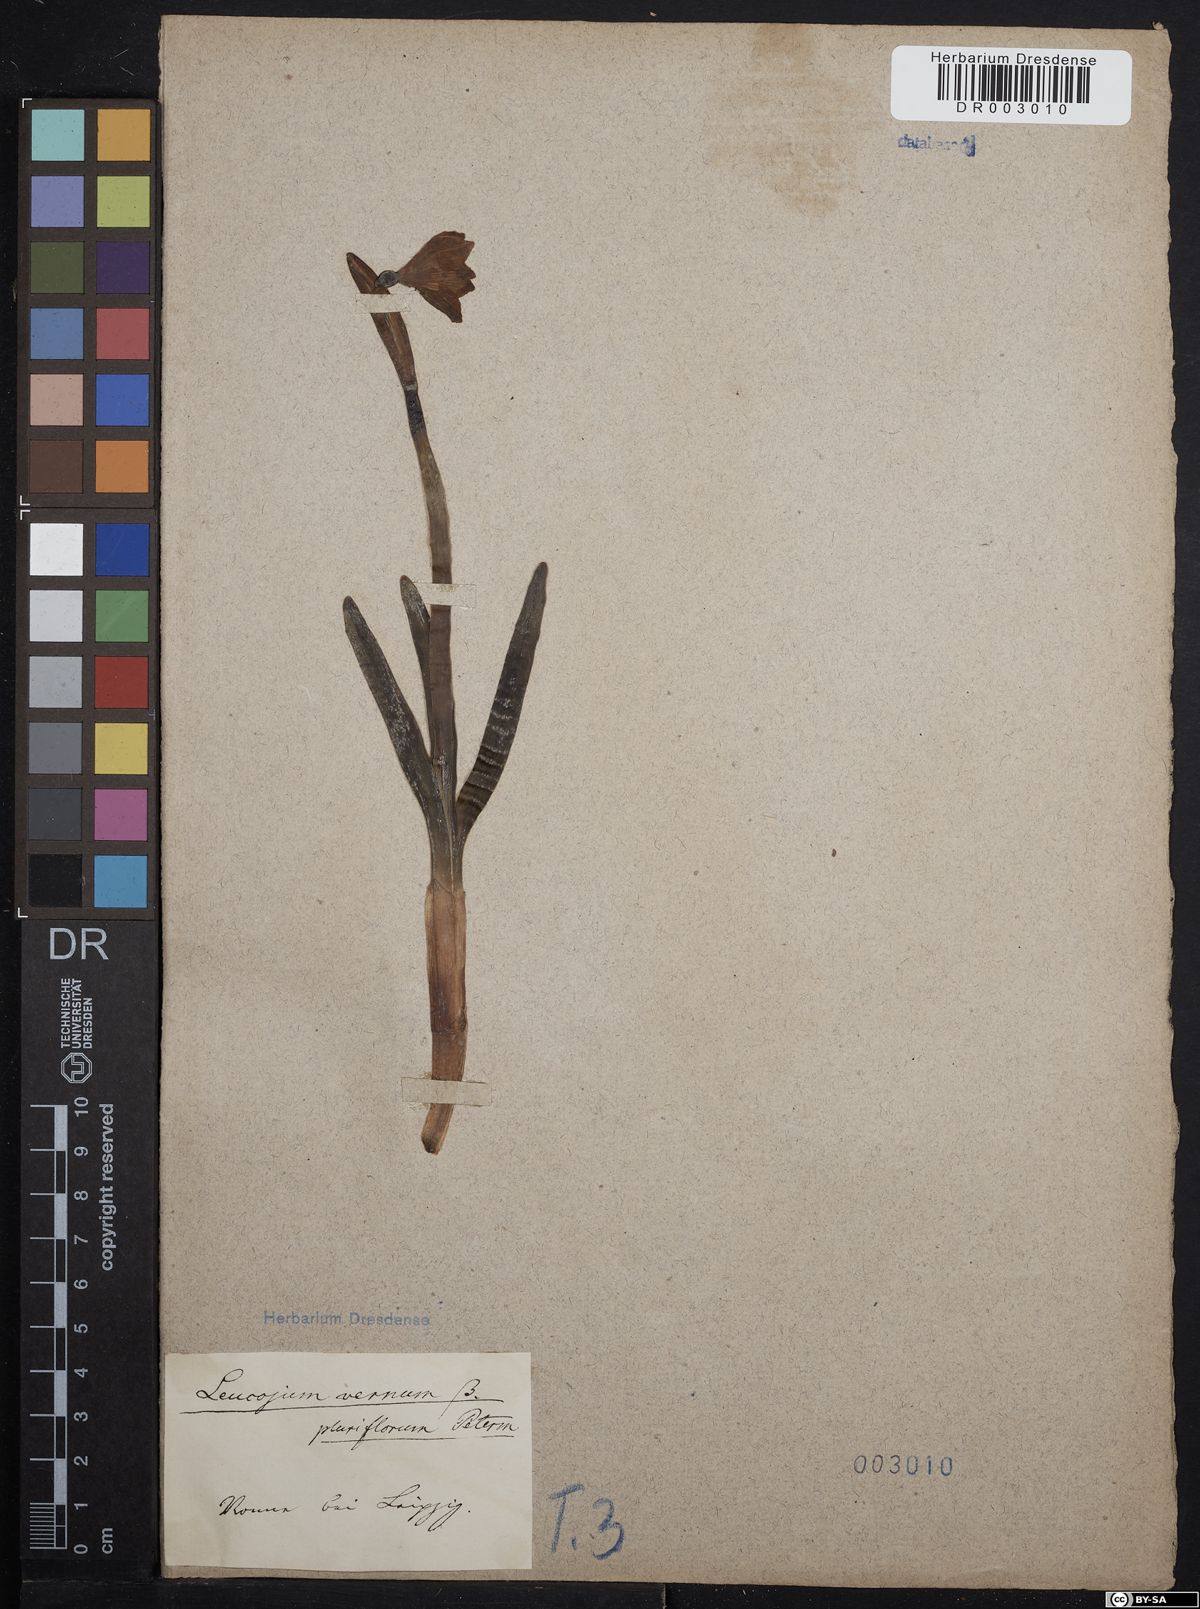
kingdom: Plantae
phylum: Tracheophyta
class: Liliopsida
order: Asparagales
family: Amaryllidaceae
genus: Leucojum
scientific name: Leucojum vernum
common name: Spring snowflake
